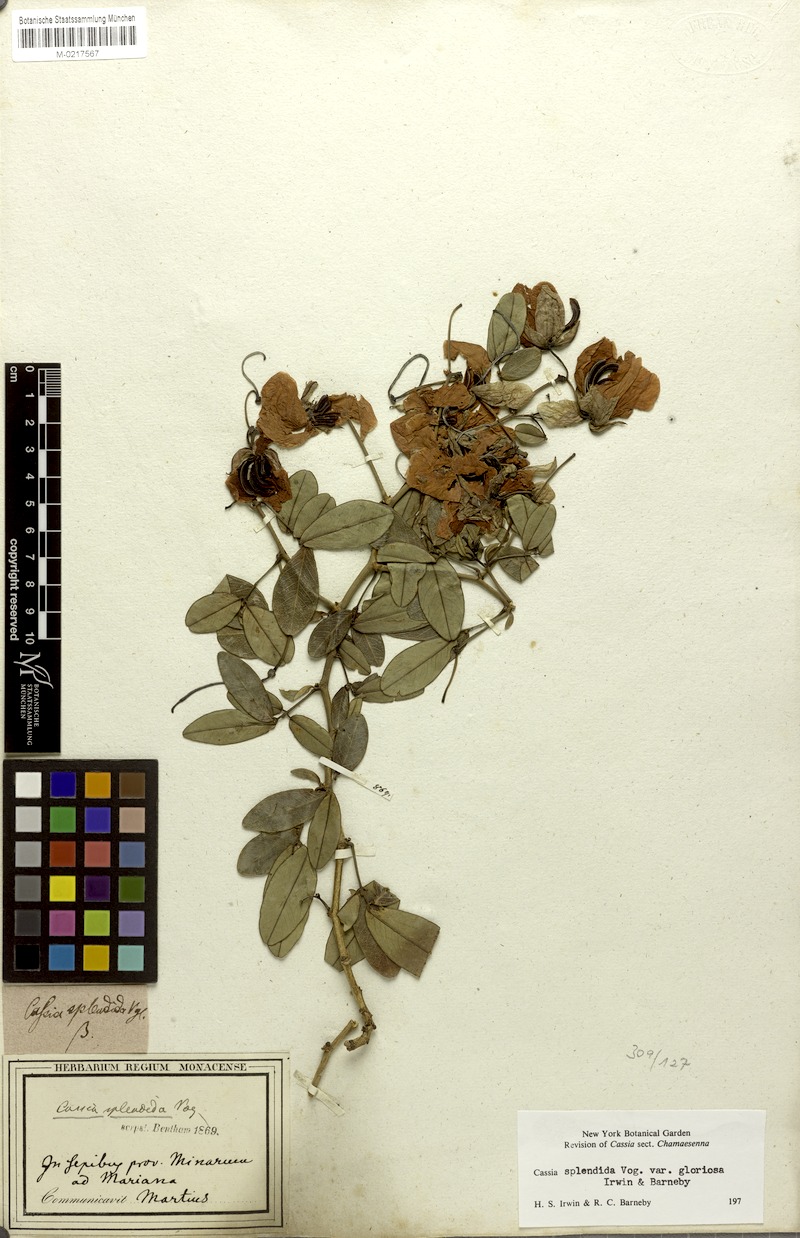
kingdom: Plantae
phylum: Tracheophyta
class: Magnoliopsida
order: Fabales
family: Fabaceae
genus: Senna
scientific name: Senna splendida
